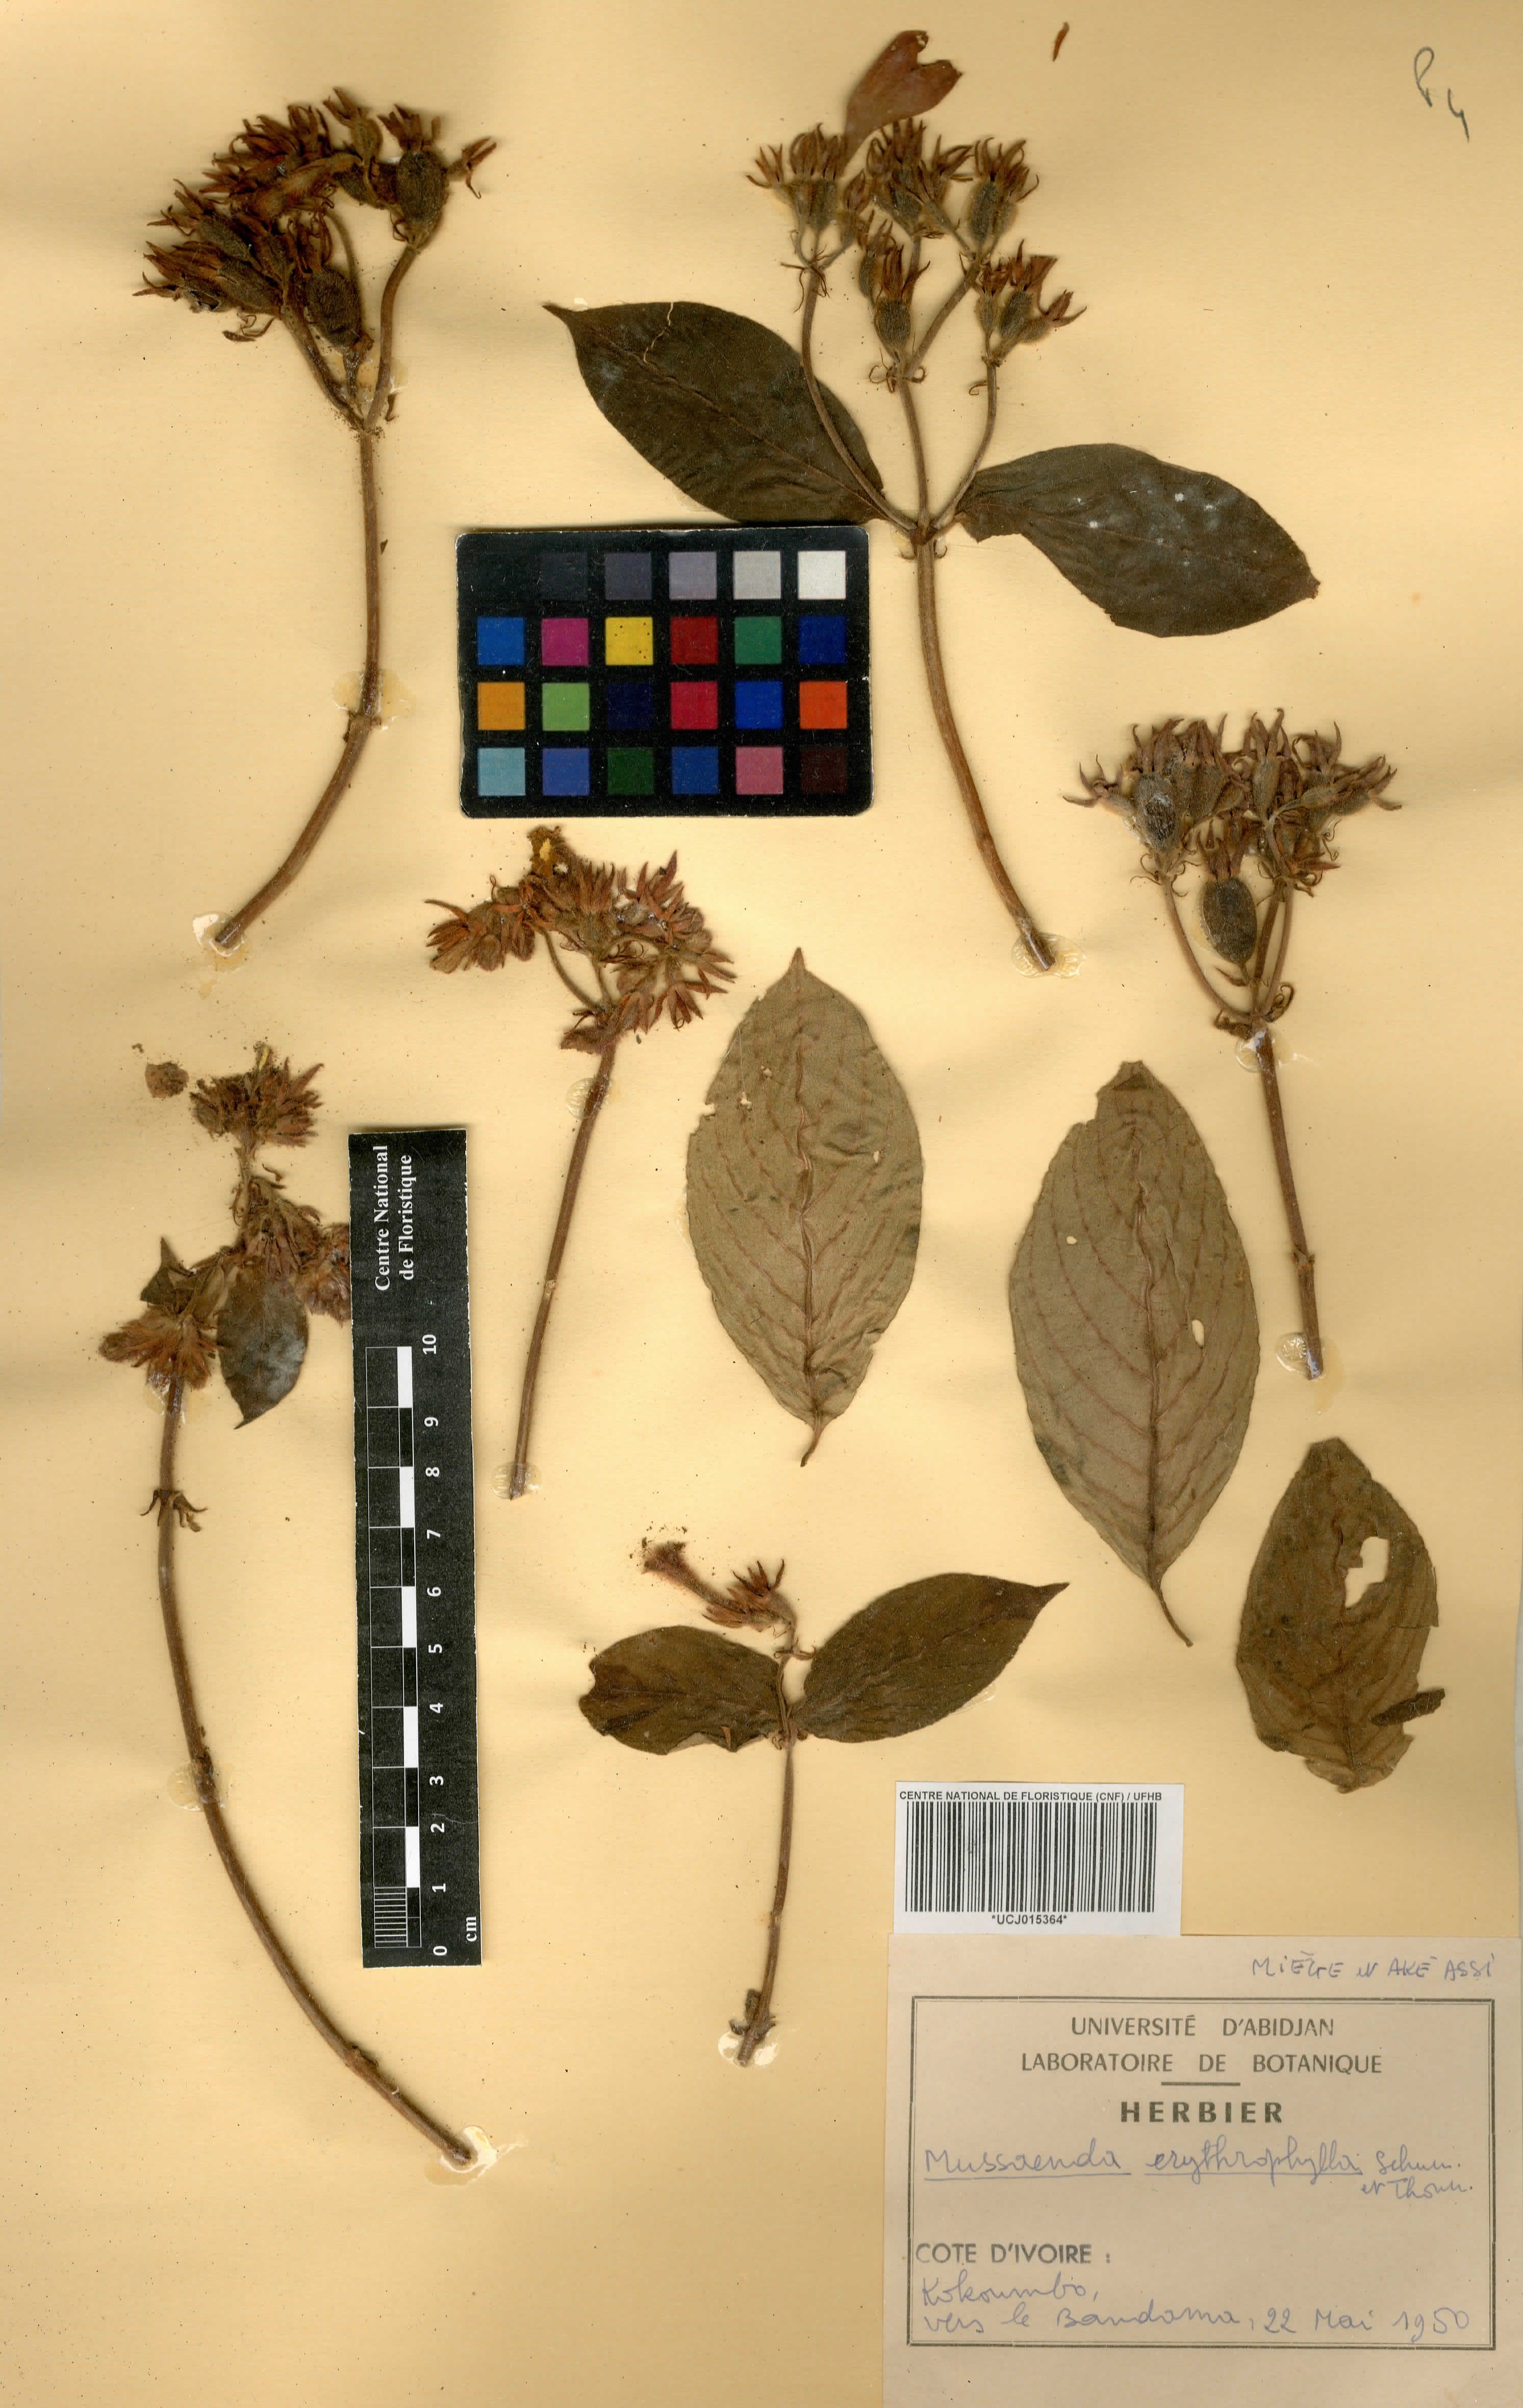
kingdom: Plantae
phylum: Tracheophyta
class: Magnoliopsida
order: Gentianales
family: Rubiaceae
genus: Mussaenda
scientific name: Mussaenda erythrophylla
